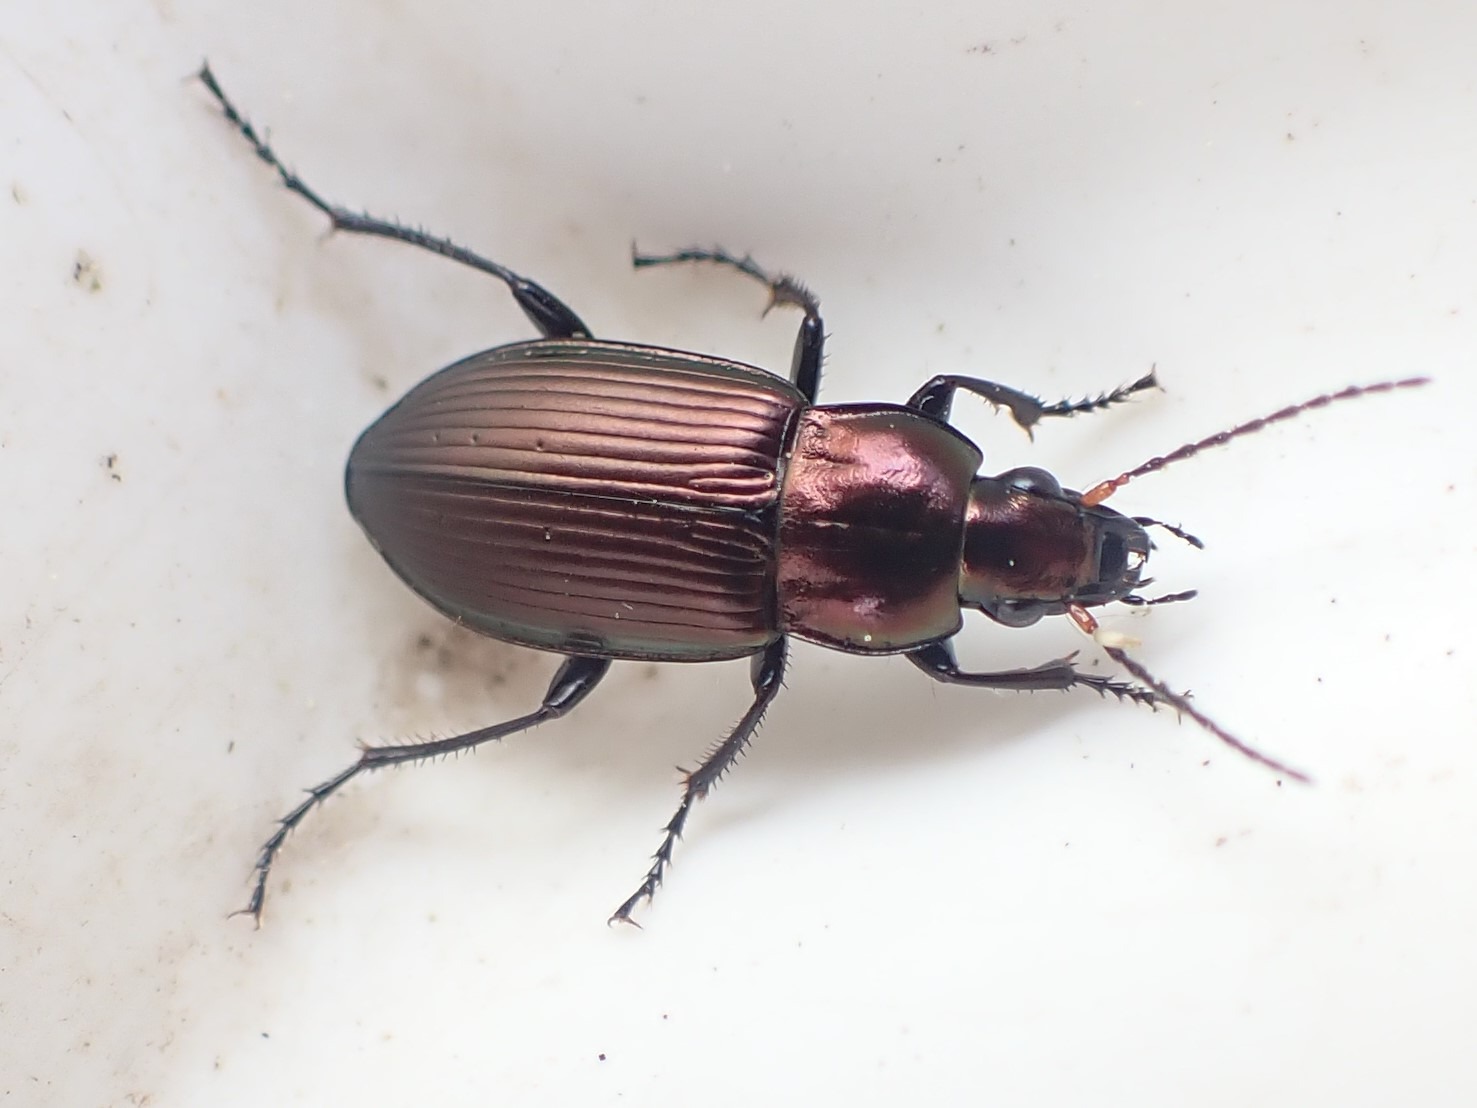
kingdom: Animalia
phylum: Arthropoda
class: Insecta
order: Coleoptera
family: Carabidae
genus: Poecilus
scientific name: Poecilus versicolor
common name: Lille metaljordløber
